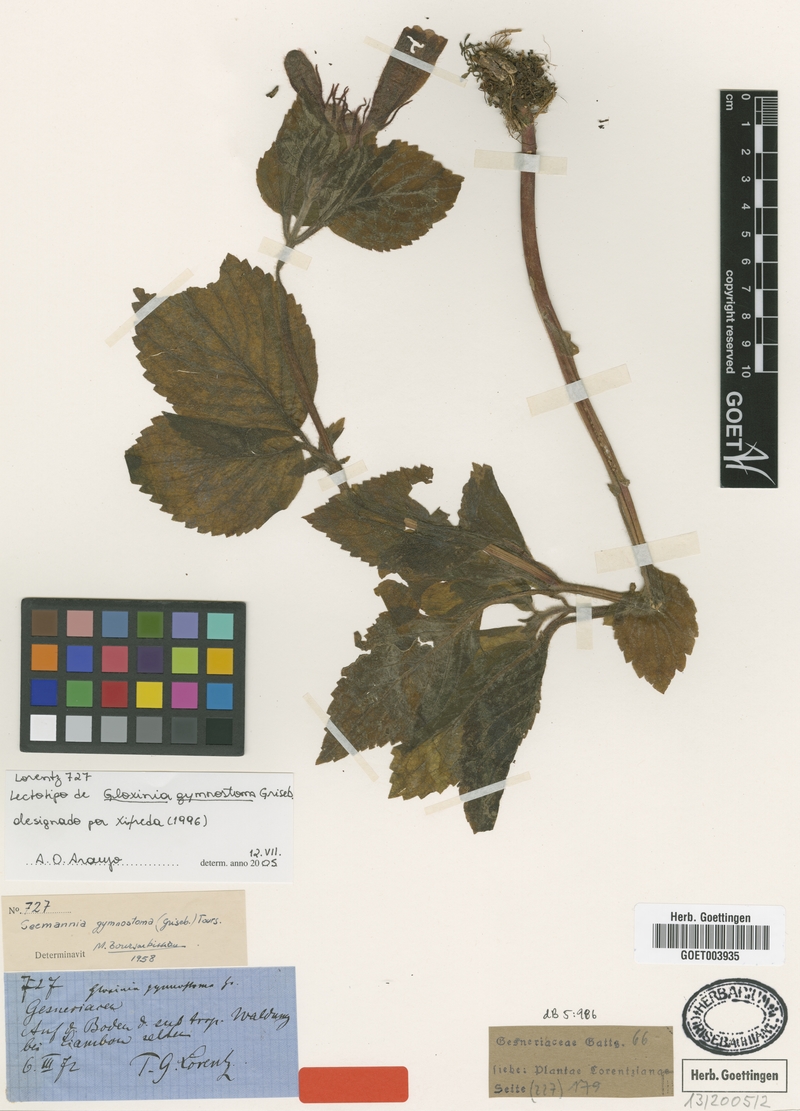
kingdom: Plantae
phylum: Tracheophyta
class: Magnoliopsida
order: Lamiales
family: Gesneriaceae
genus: Seemannia
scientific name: Seemannia gymnostoma
